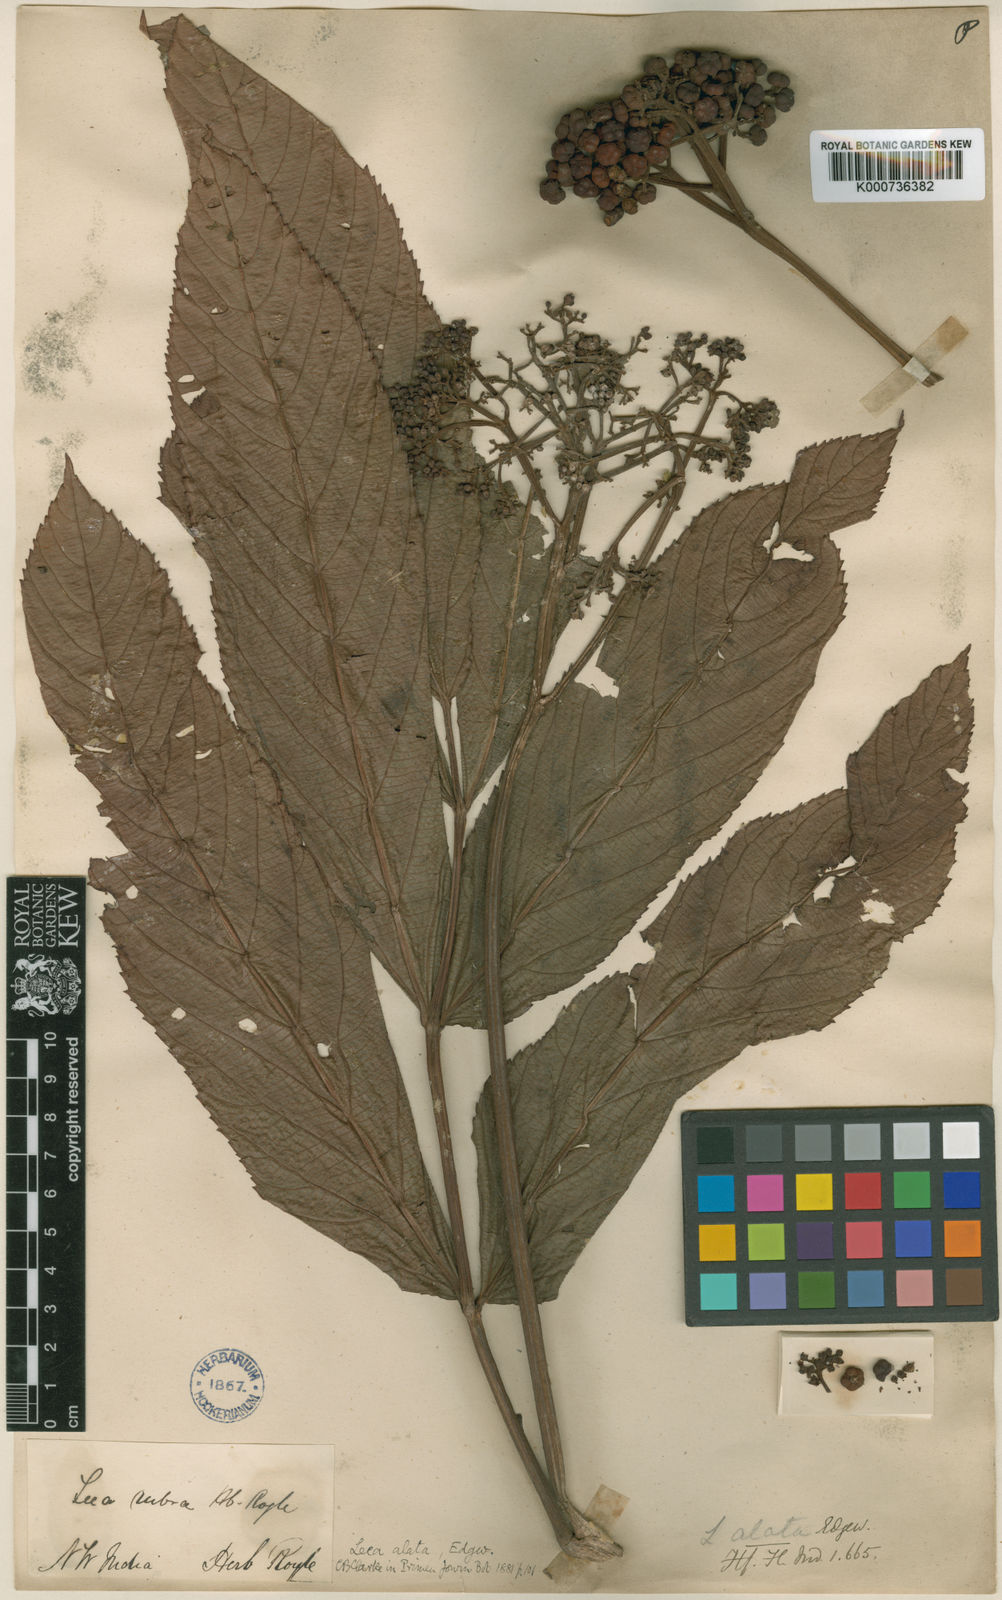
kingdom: Plantae
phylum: Tracheophyta
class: Magnoliopsida
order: Vitales
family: Vitaceae
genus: Leea
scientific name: Leea alata
